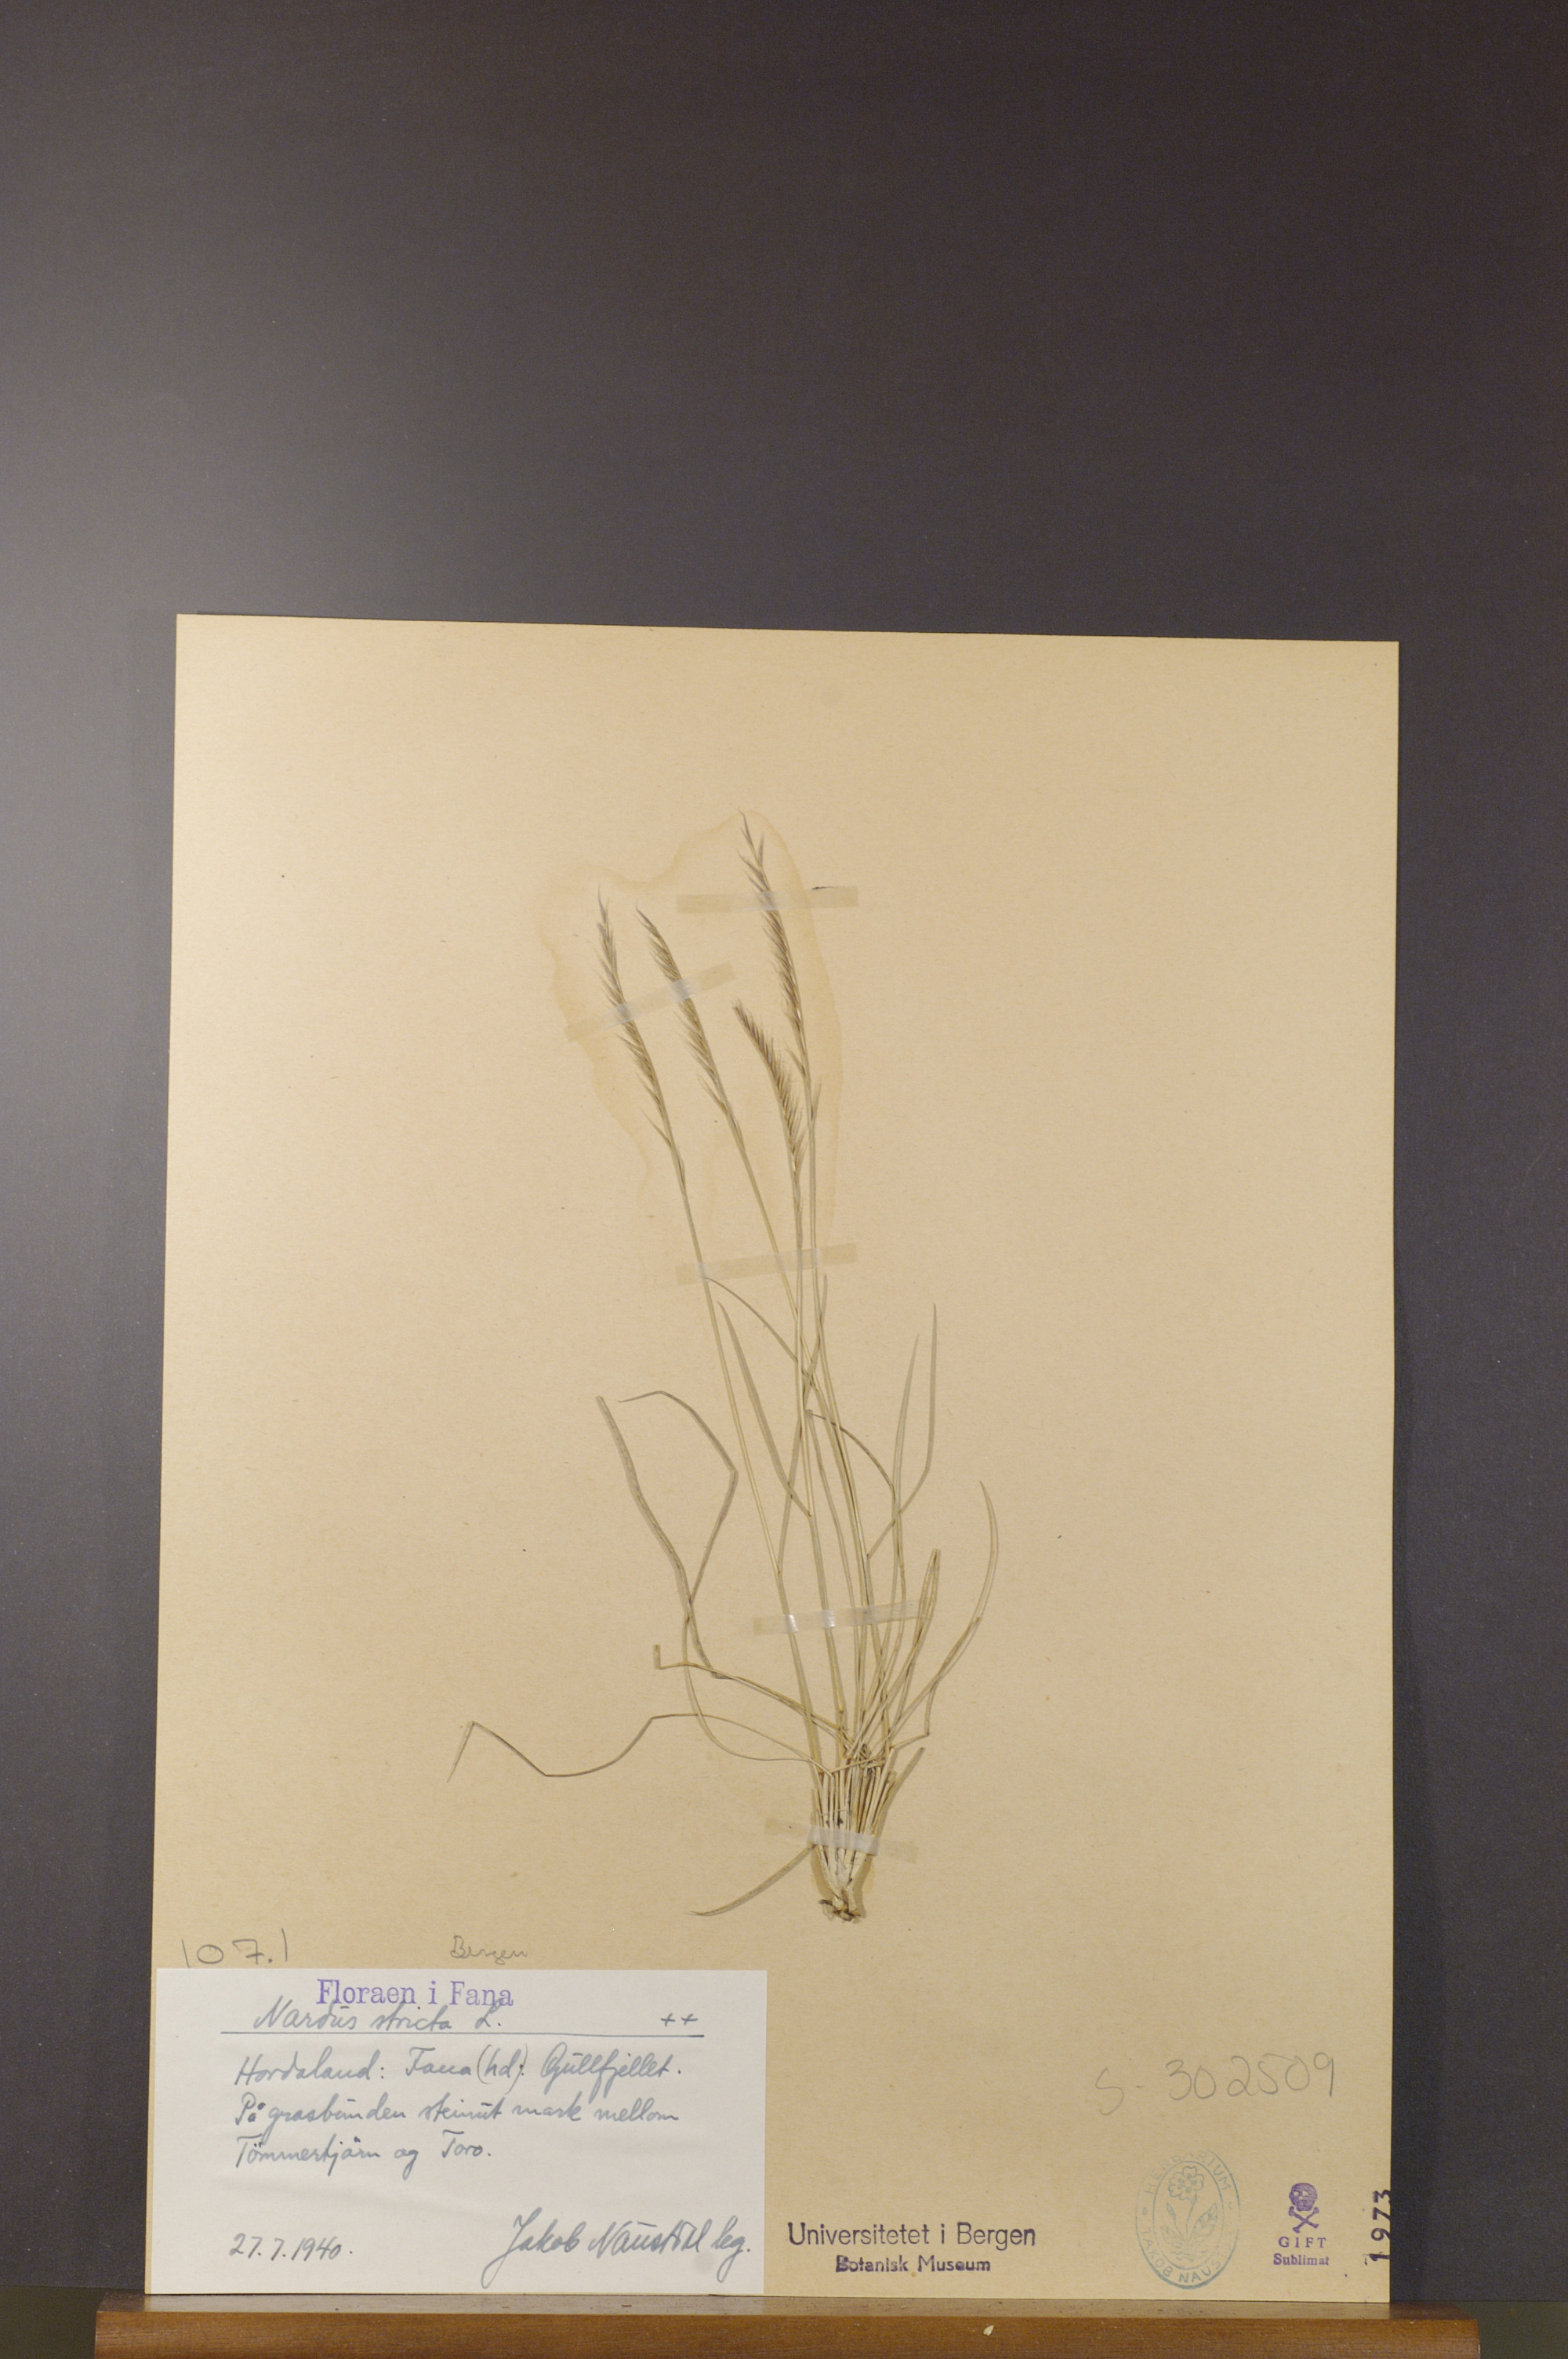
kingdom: Plantae
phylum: Tracheophyta
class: Liliopsida
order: Poales
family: Poaceae
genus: Nardus
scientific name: Nardus stricta
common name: Mat-grass
